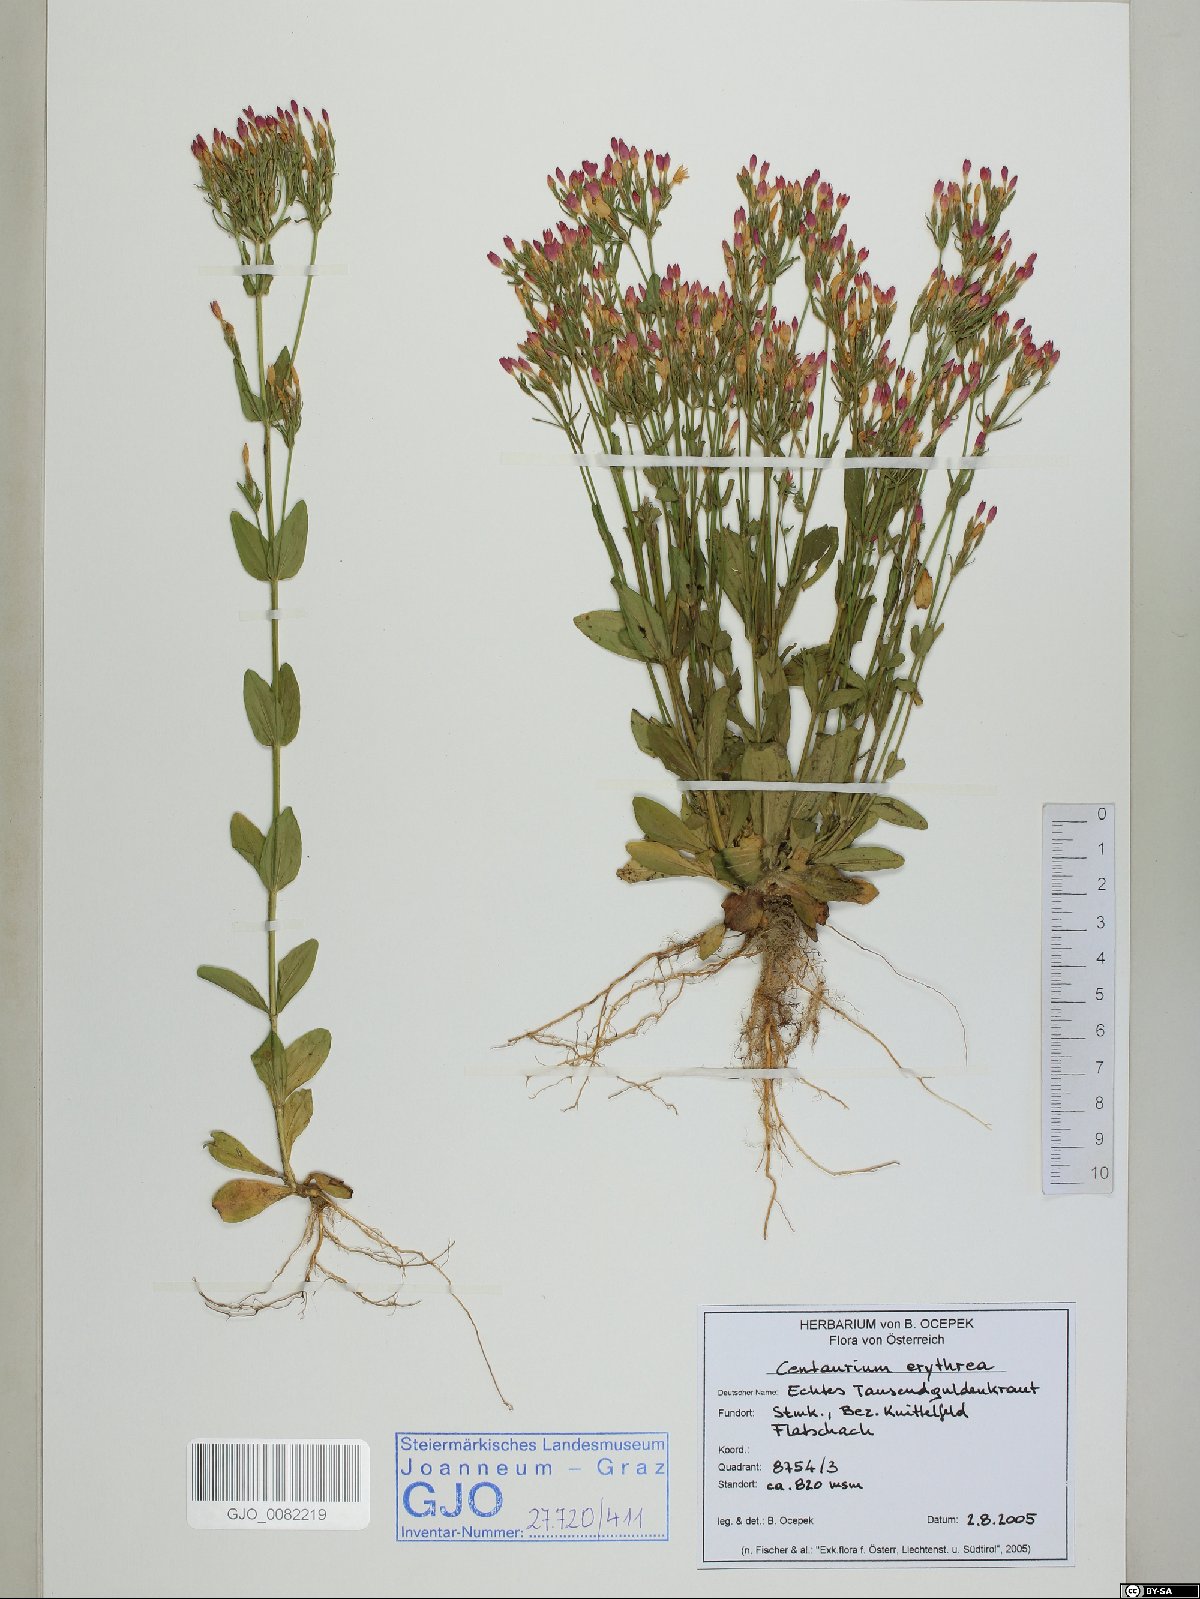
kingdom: Plantae
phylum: Tracheophyta
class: Magnoliopsida
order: Gentianales
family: Gentianaceae
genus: Centaurium
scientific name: Centaurium erythraea
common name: Common centaury
